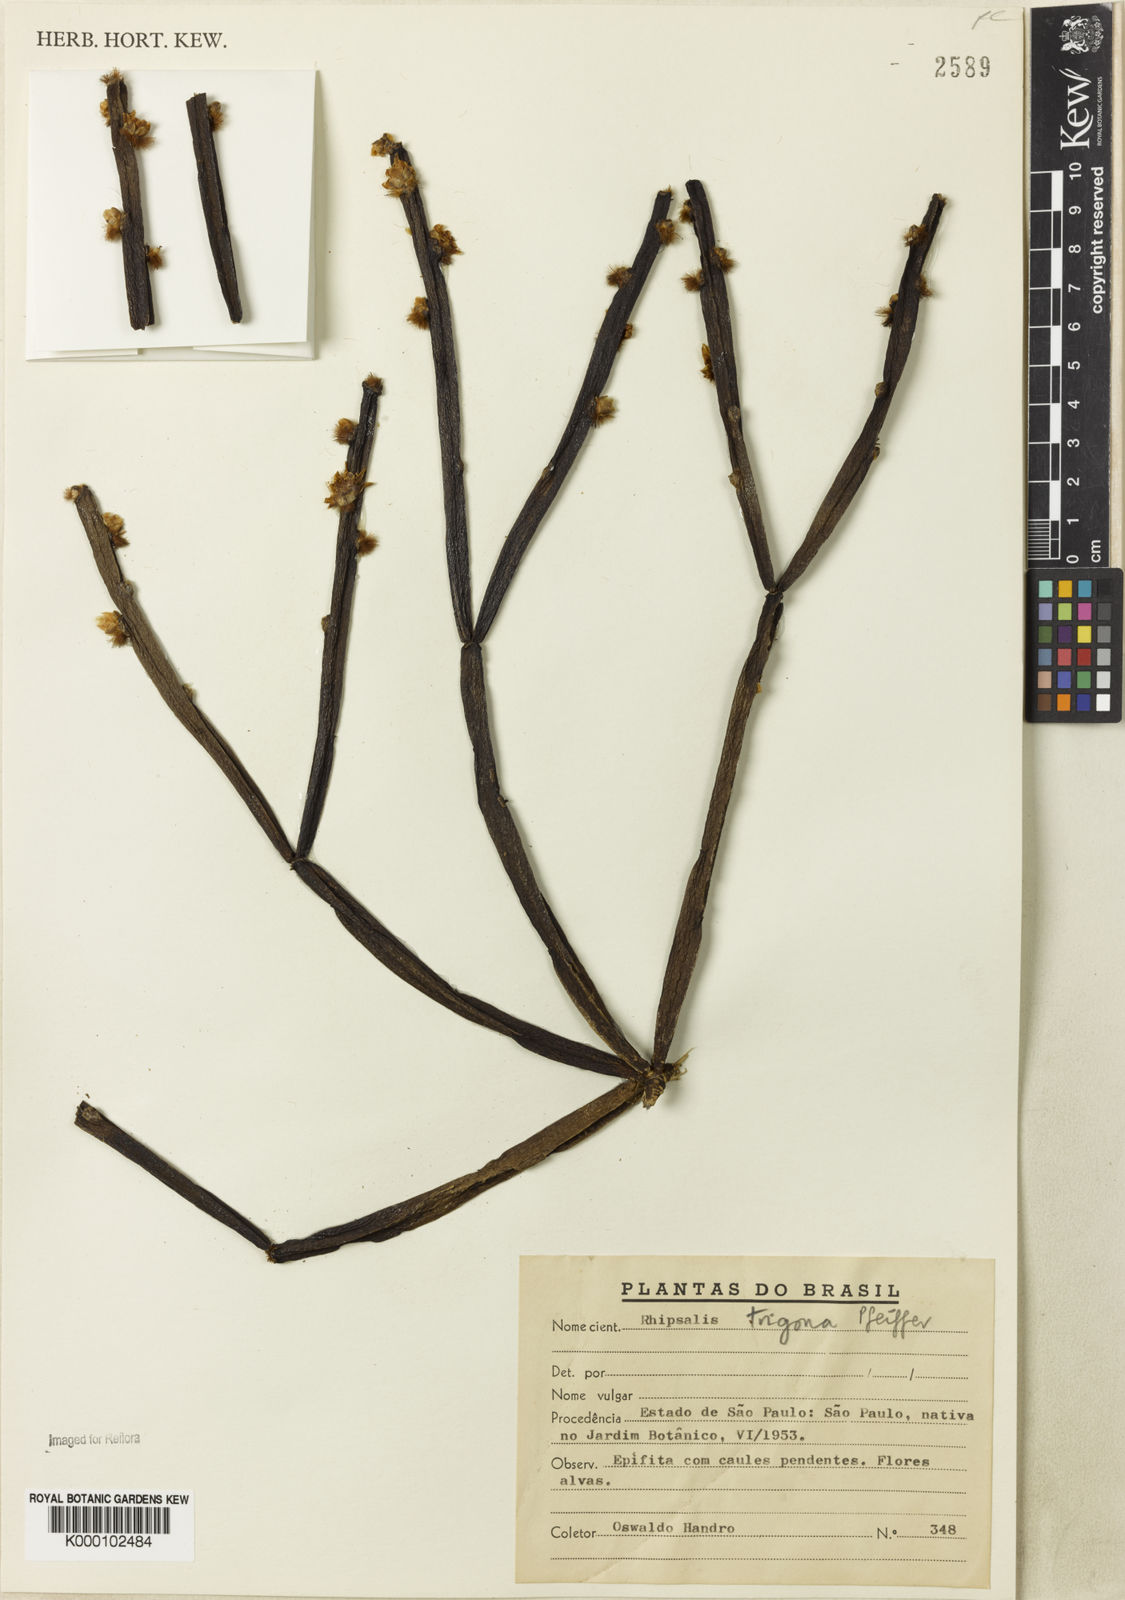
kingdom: Plantae
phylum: Tracheophyta
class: Magnoliopsida
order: Caryophyllales
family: Cactaceae
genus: Rhipsalis
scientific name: Rhipsalis trigona
